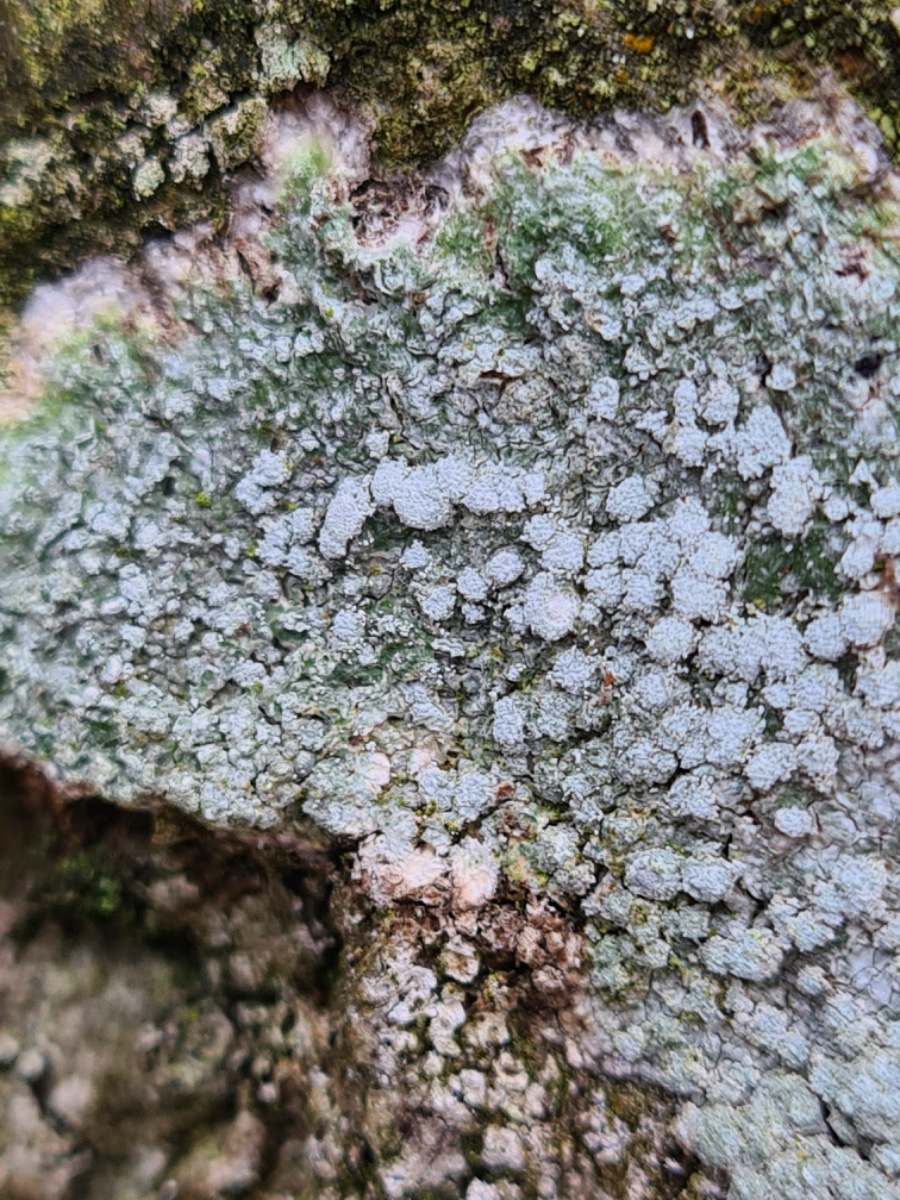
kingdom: Fungi
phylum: Ascomycota
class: Lecanoromycetes
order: Pertusariales
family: Pertusariaceae
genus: Lepra
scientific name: Lepra amara
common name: bitter prikvortelav
